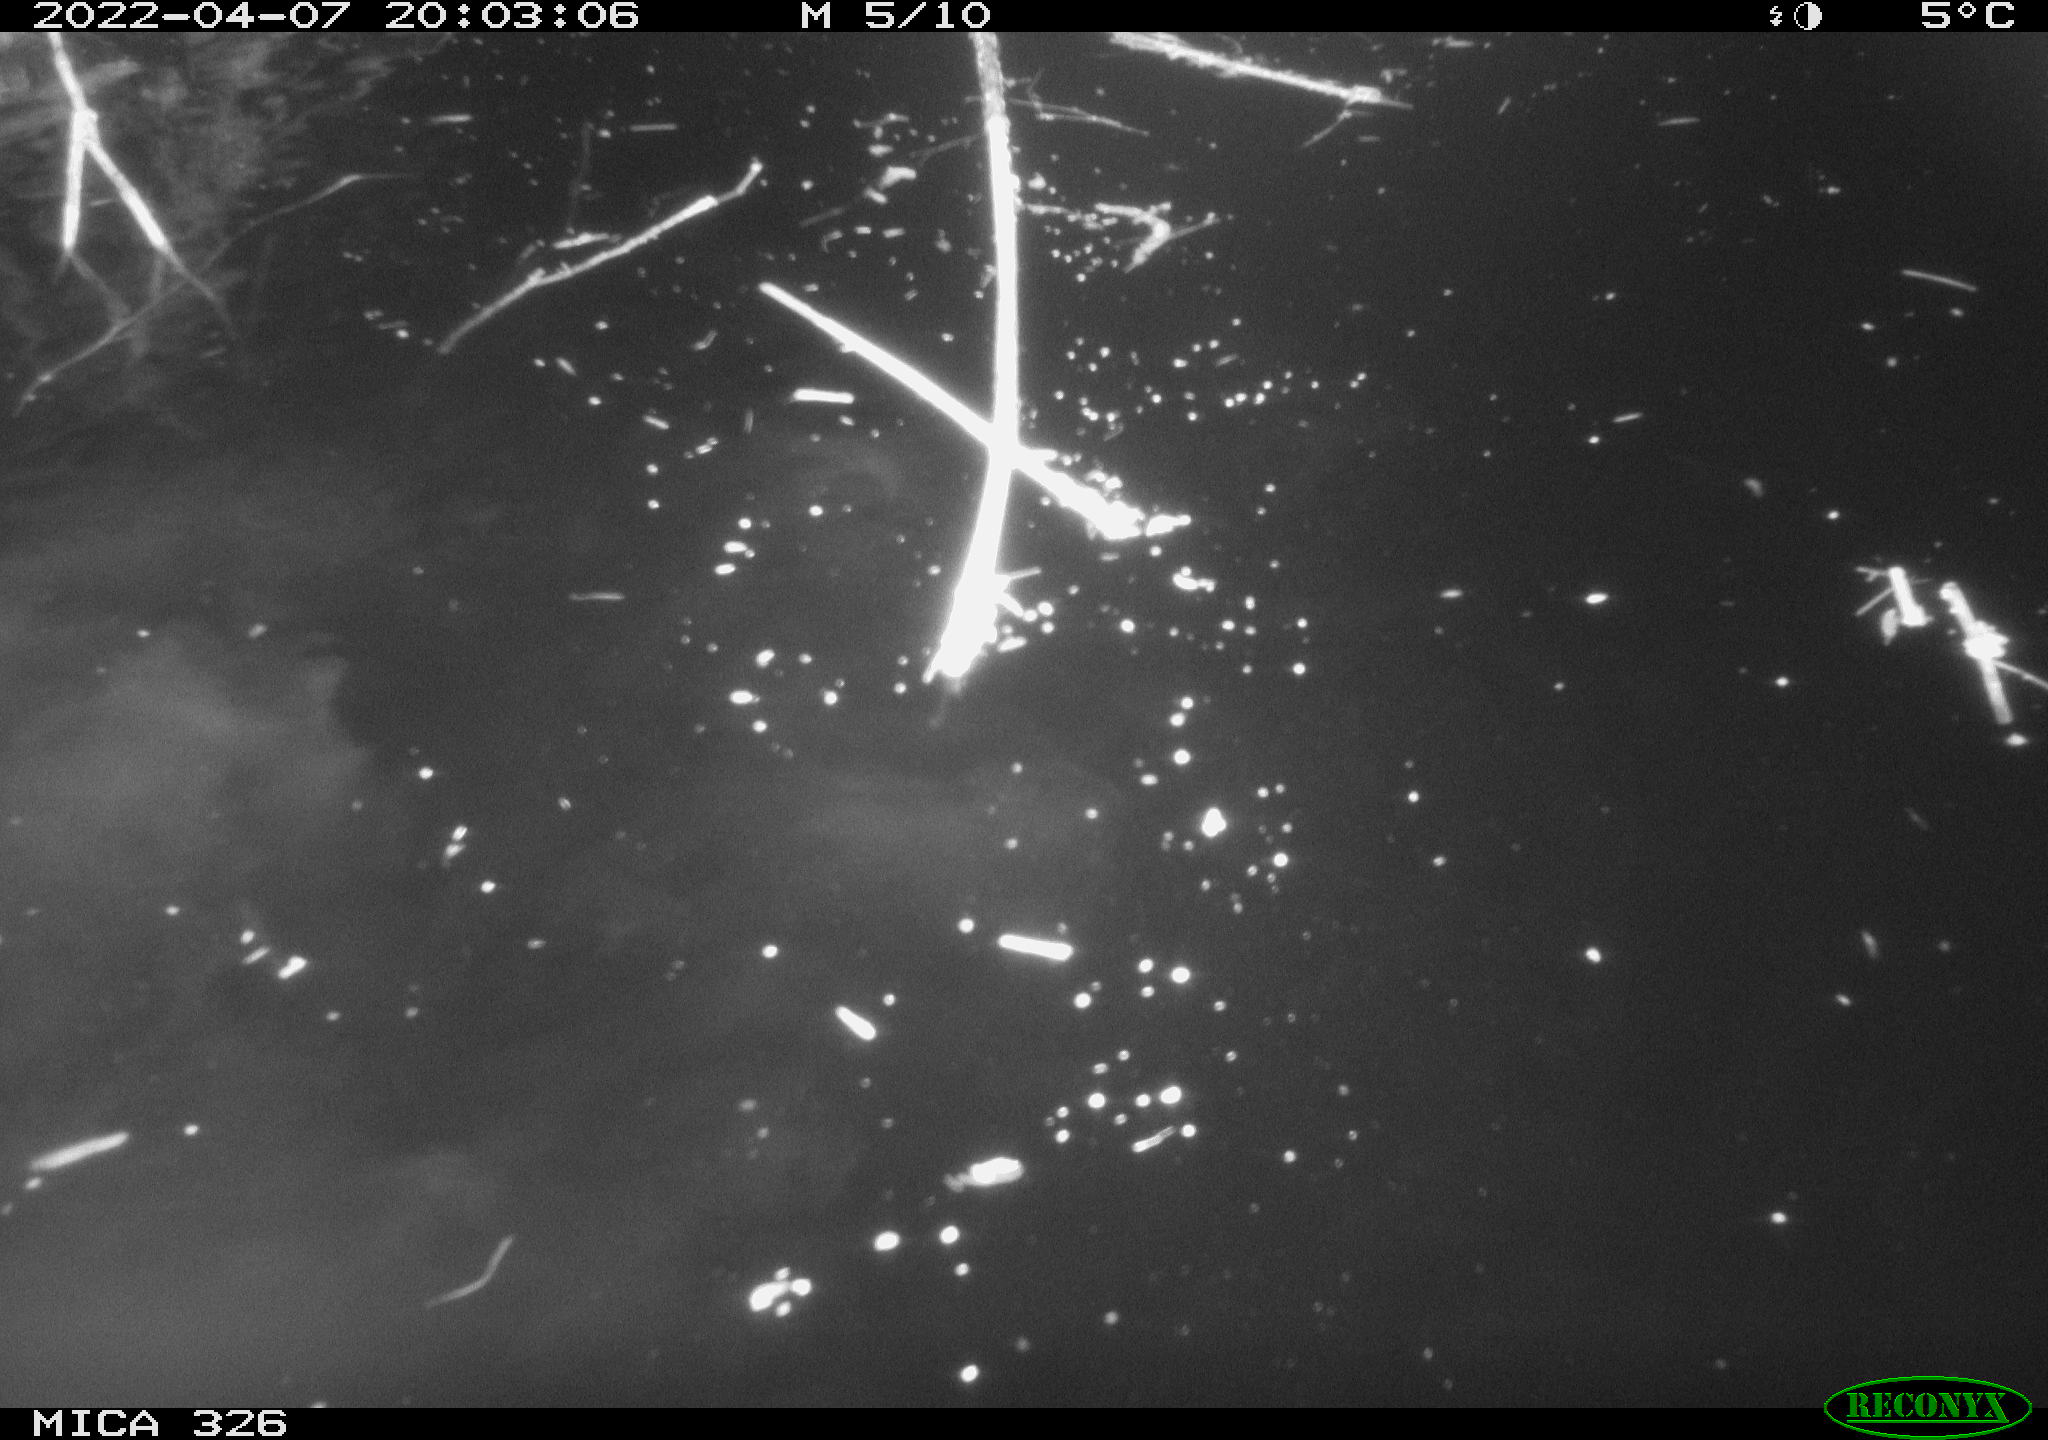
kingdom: Animalia
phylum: Chordata
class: Mammalia
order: Rodentia
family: Castoridae
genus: Castor
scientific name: Castor fiber
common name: Eurasian beaver
